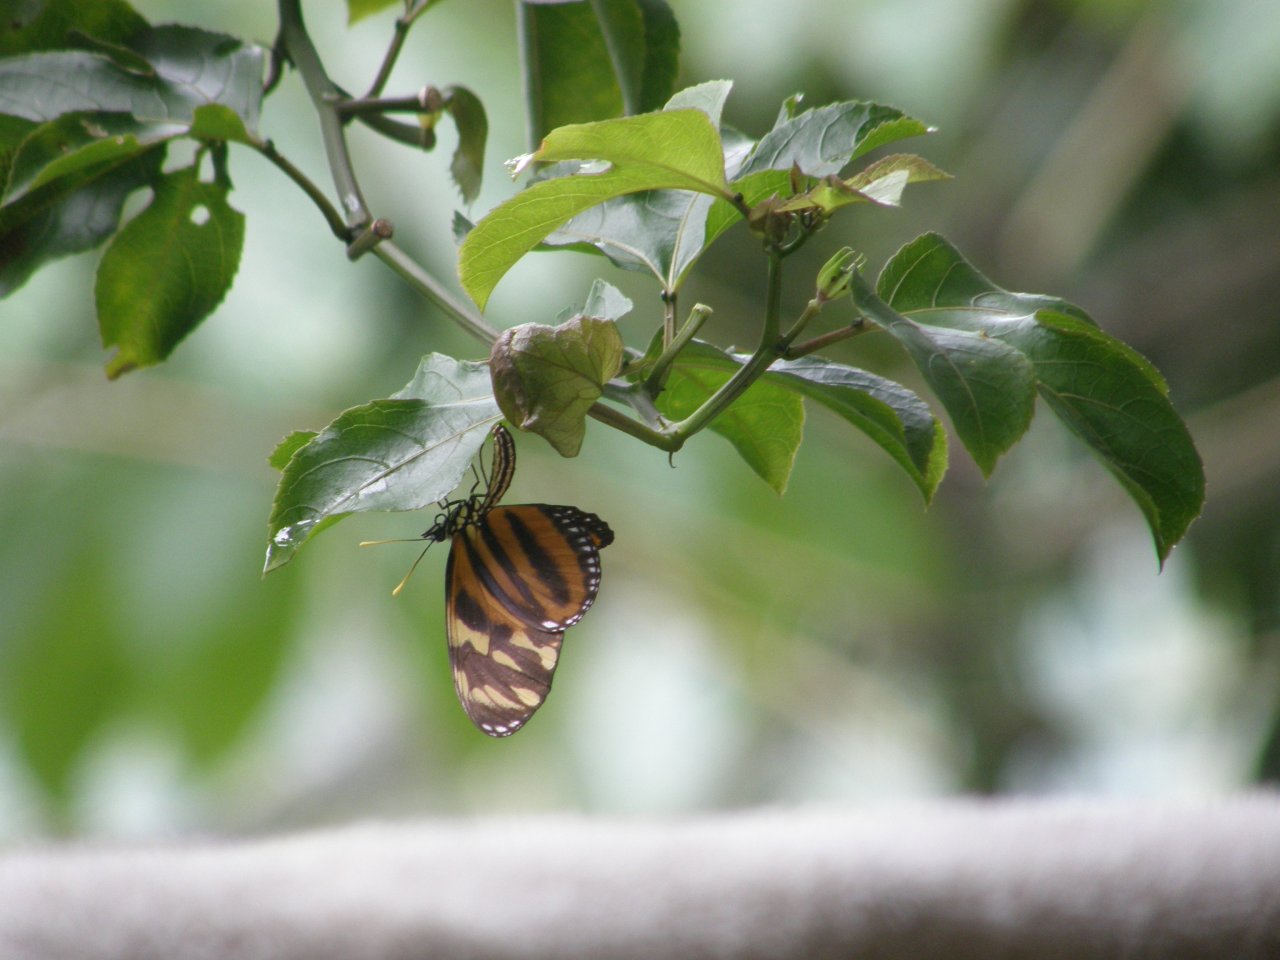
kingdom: Animalia
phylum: Arthropoda
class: Insecta
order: Lepidoptera
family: Nymphalidae
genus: Eueides
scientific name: Eueides isabella
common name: Isabella's Heliconian
